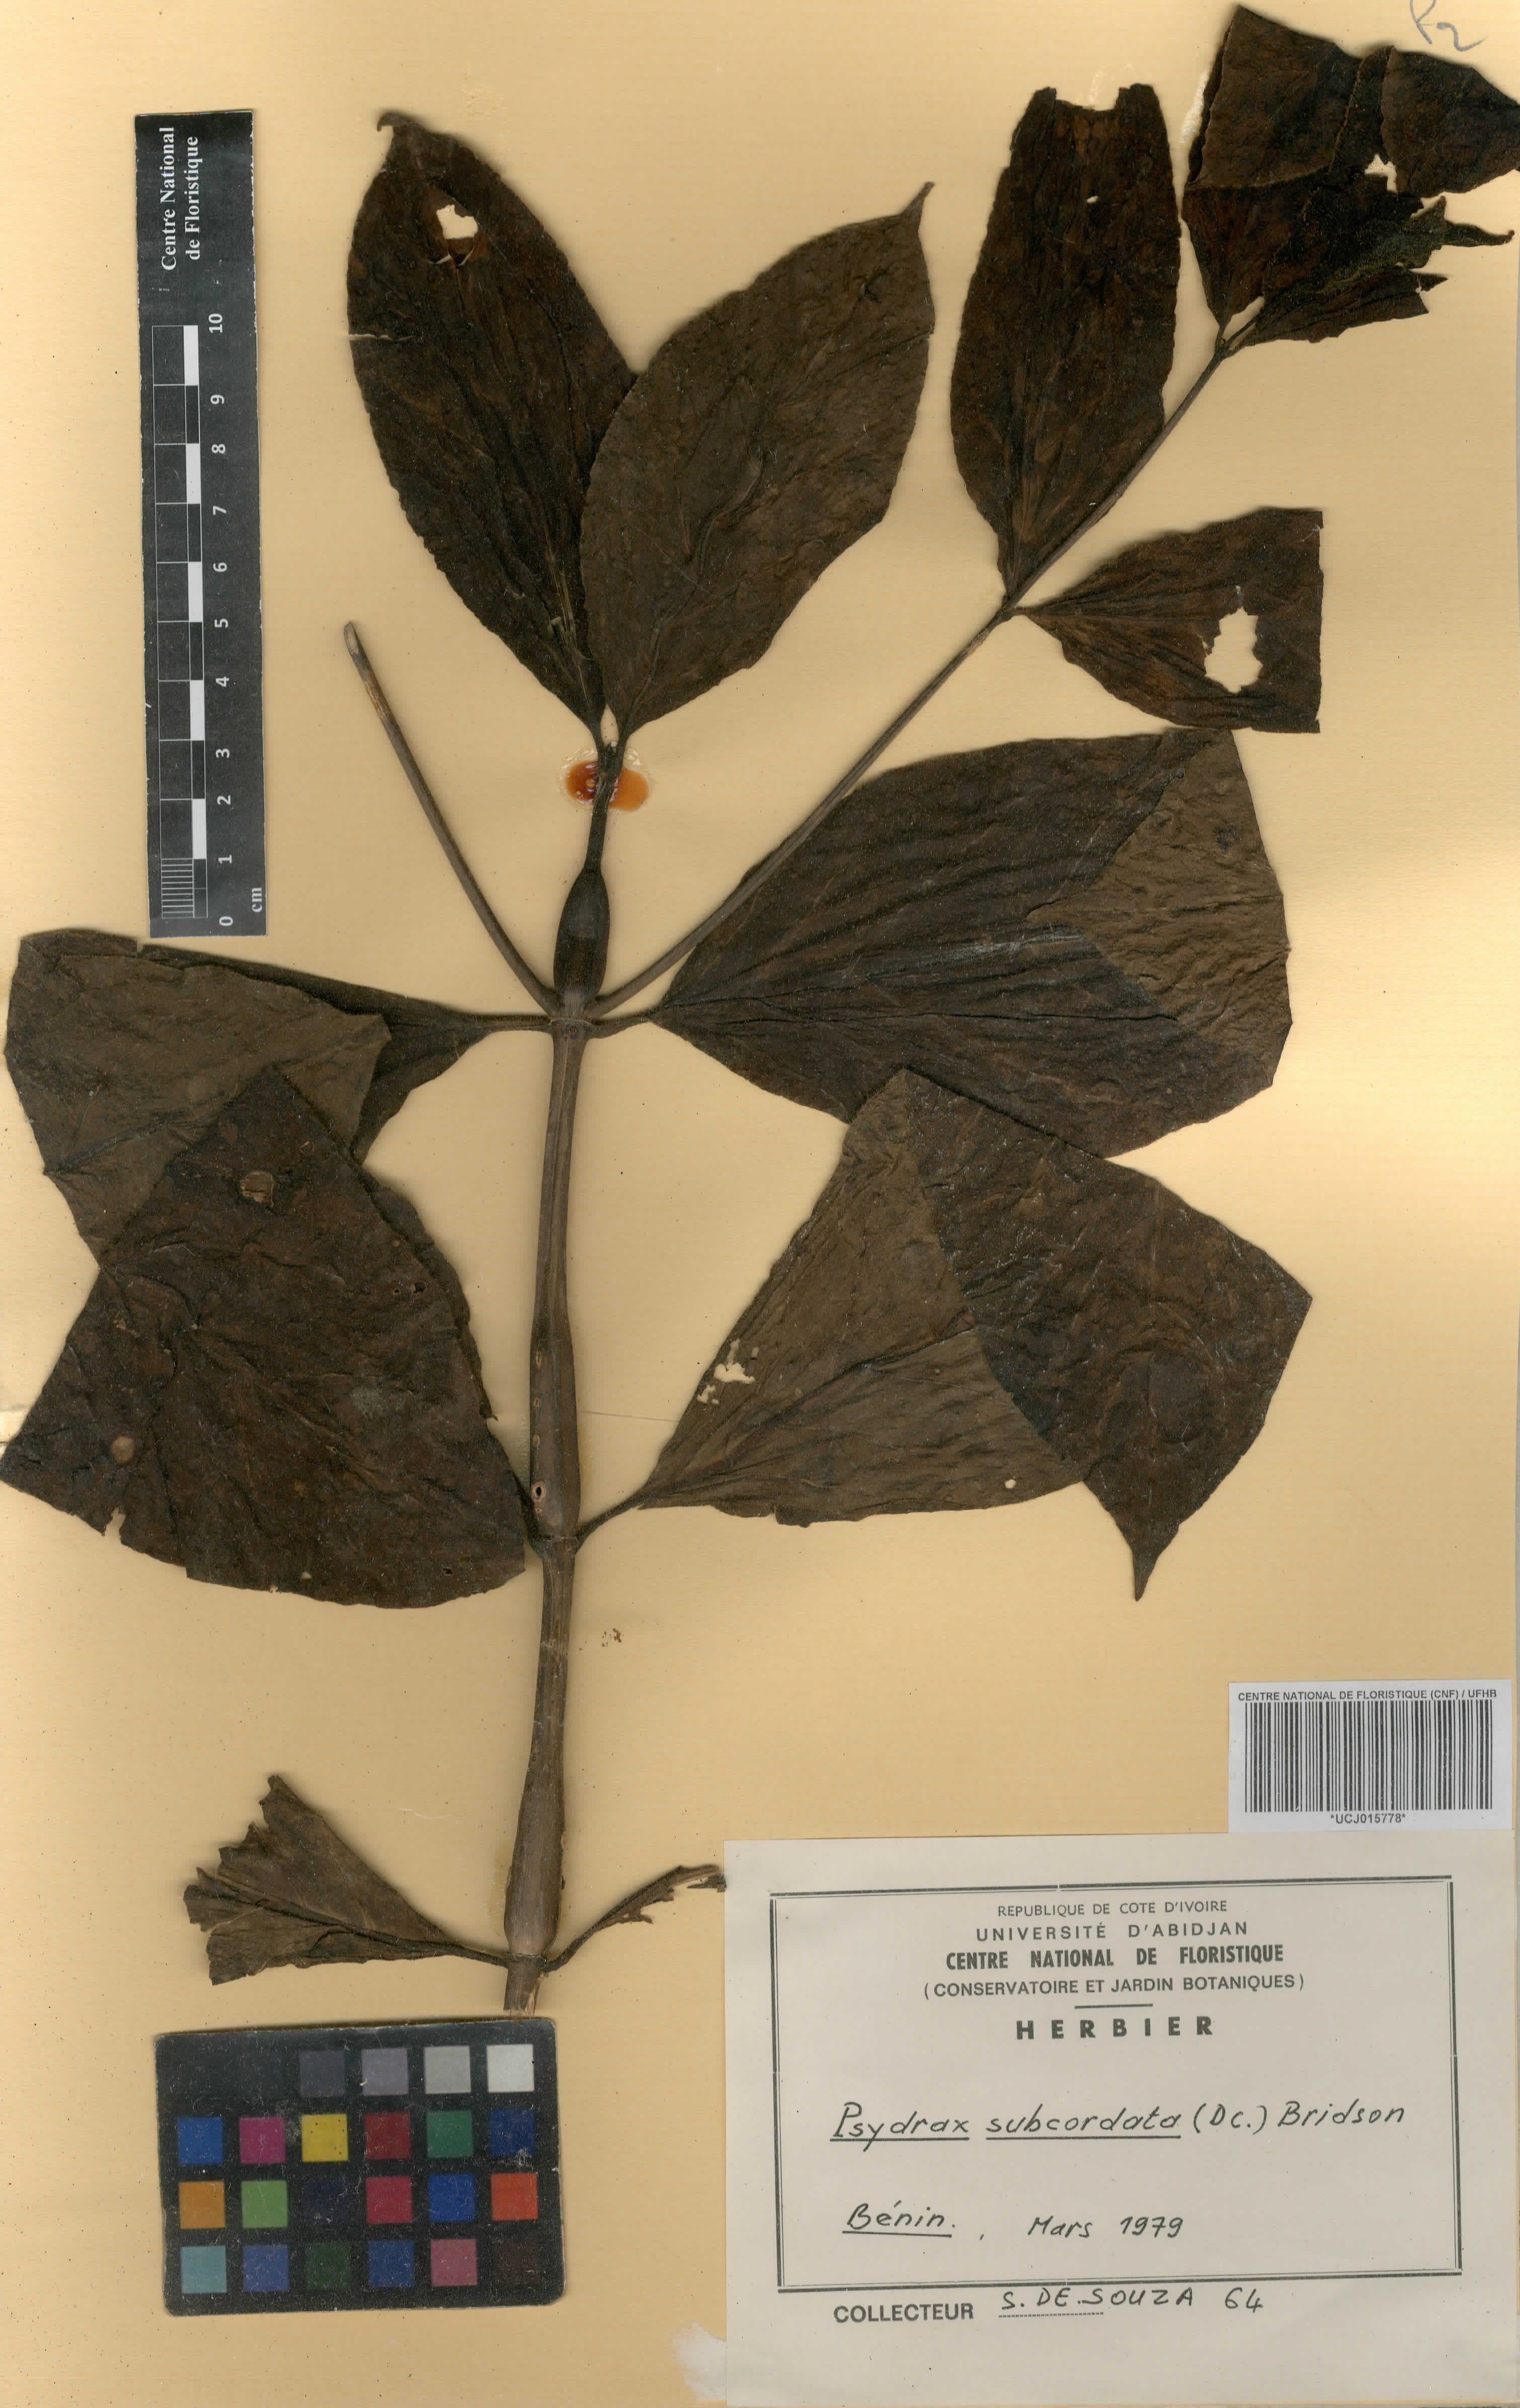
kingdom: Plantae
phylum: Tracheophyta
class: Magnoliopsida
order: Gentianales
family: Rubiaceae
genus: Psydrax
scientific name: Psydrax subcordatus
